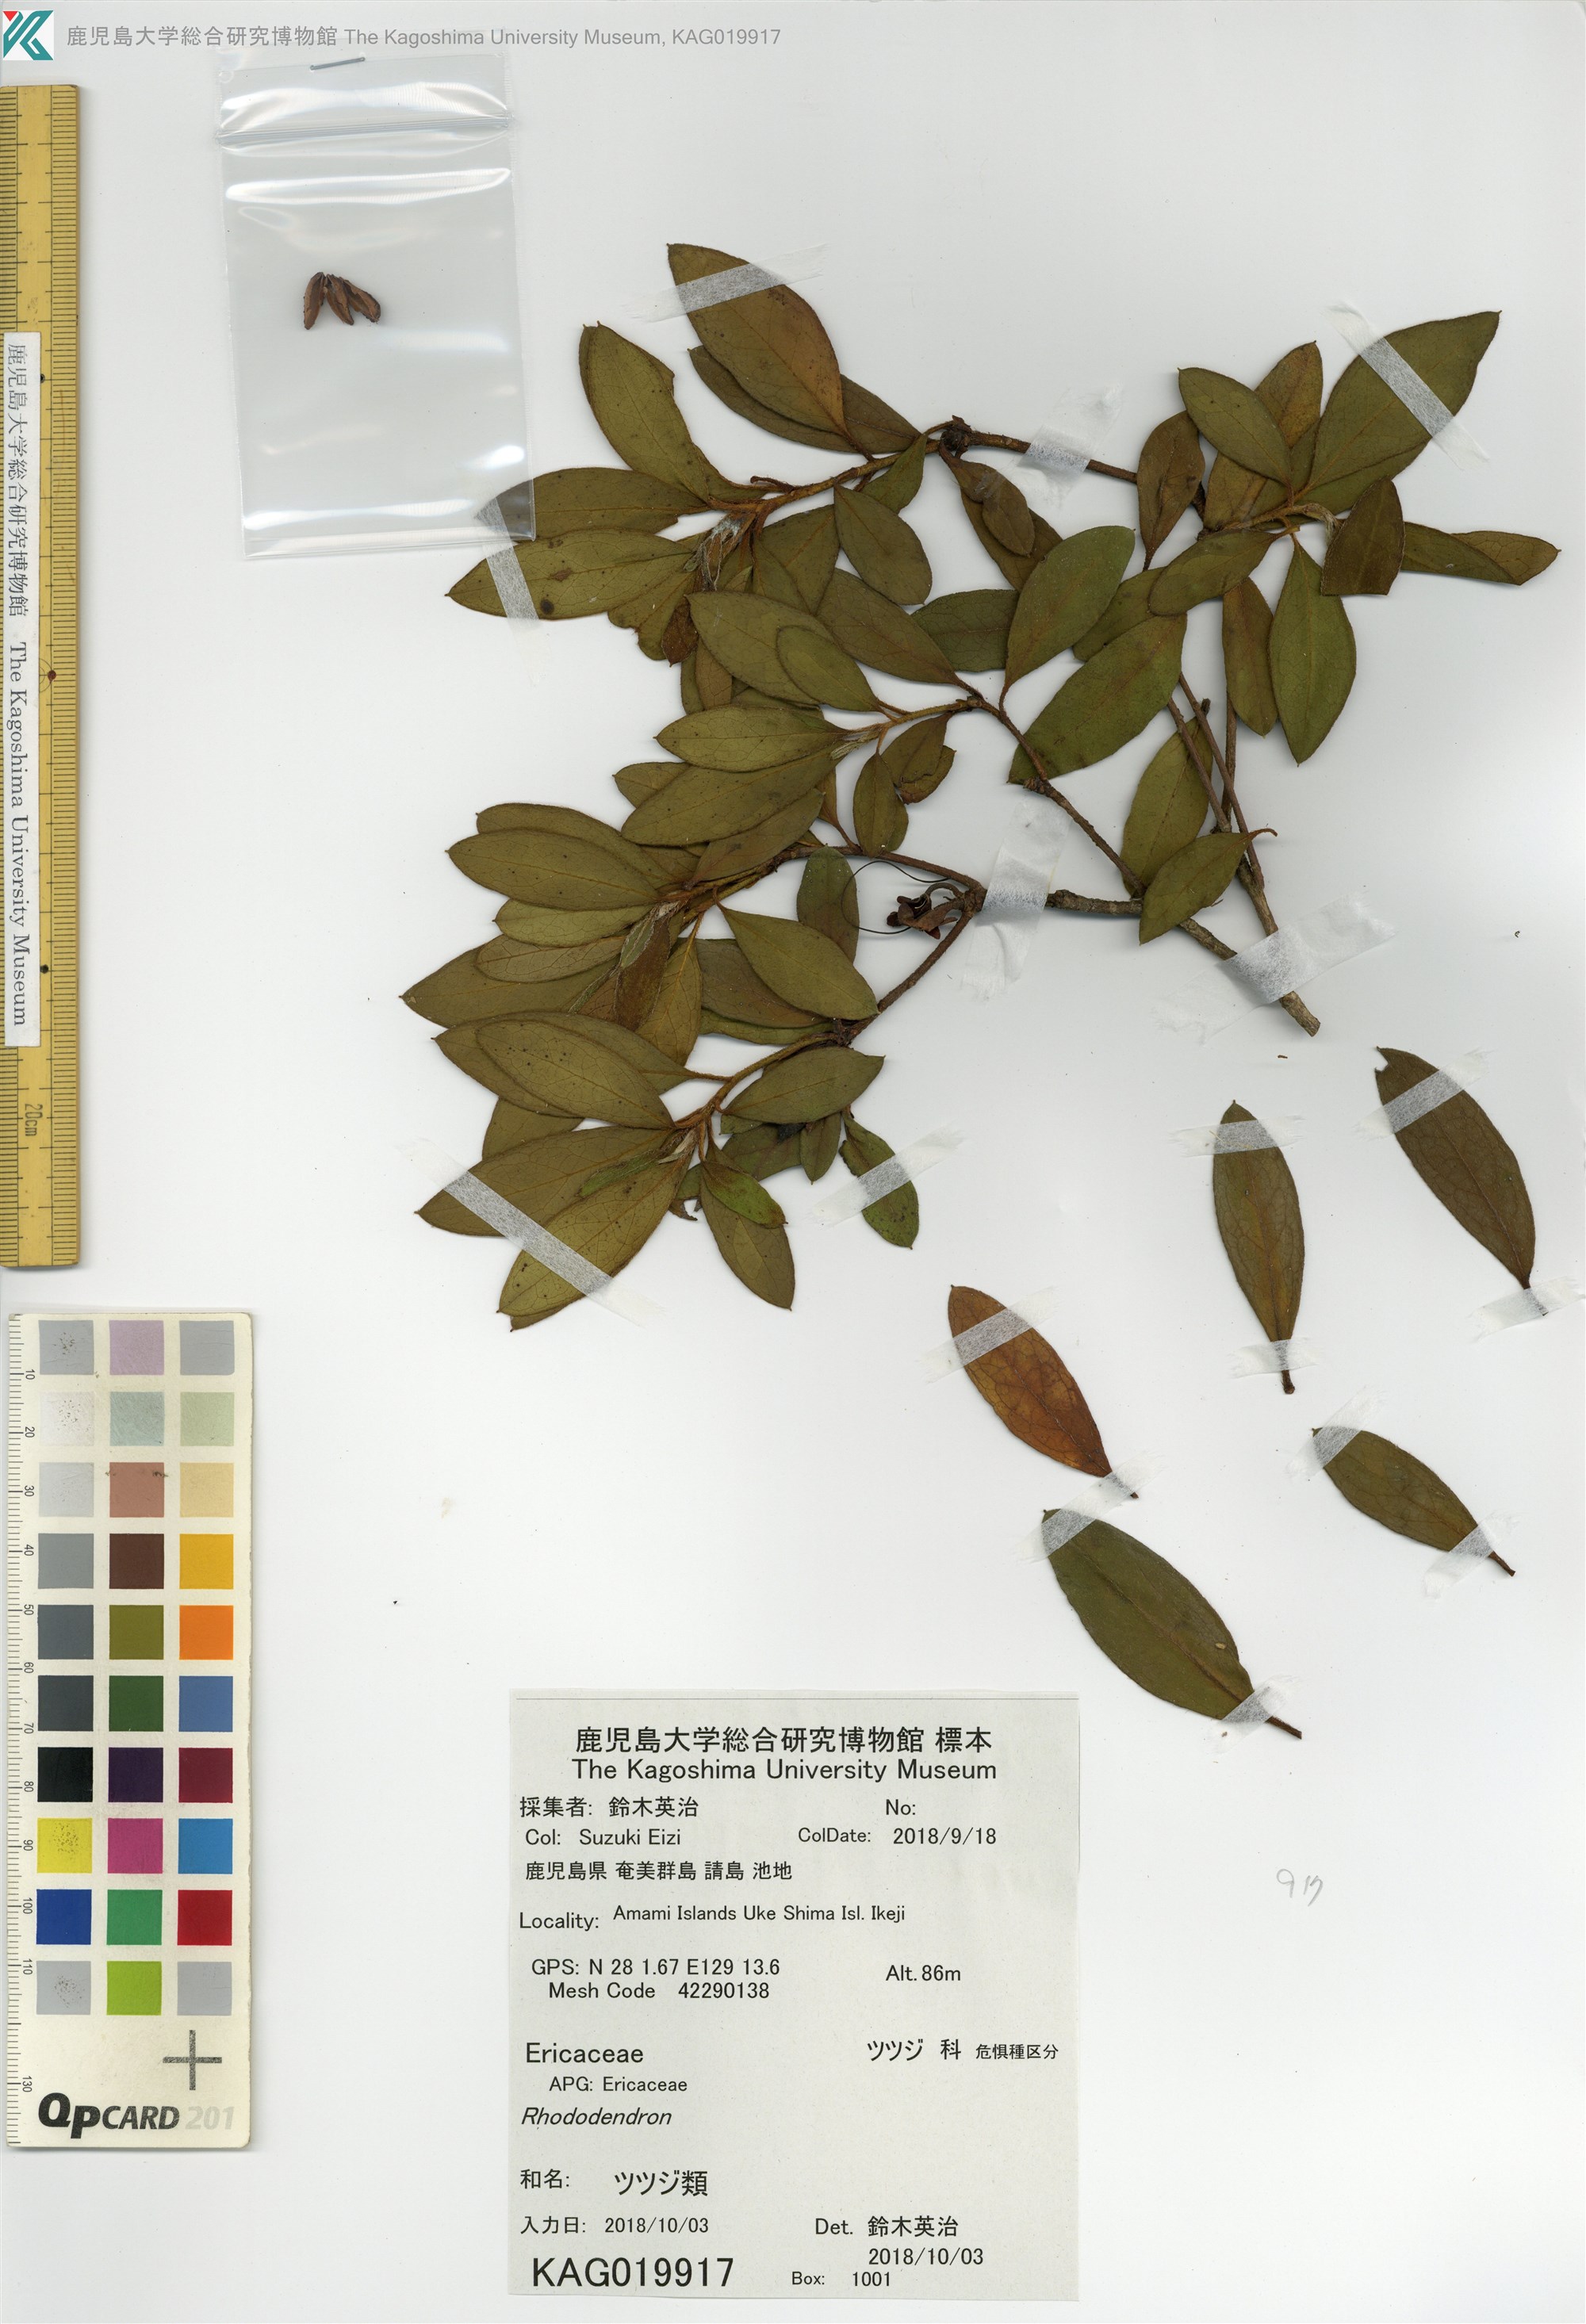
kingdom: Plantae
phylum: Tracheophyta
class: Magnoliopsida
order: Ericales
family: Ericaceae
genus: Rhododendron
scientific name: Rhododendron
